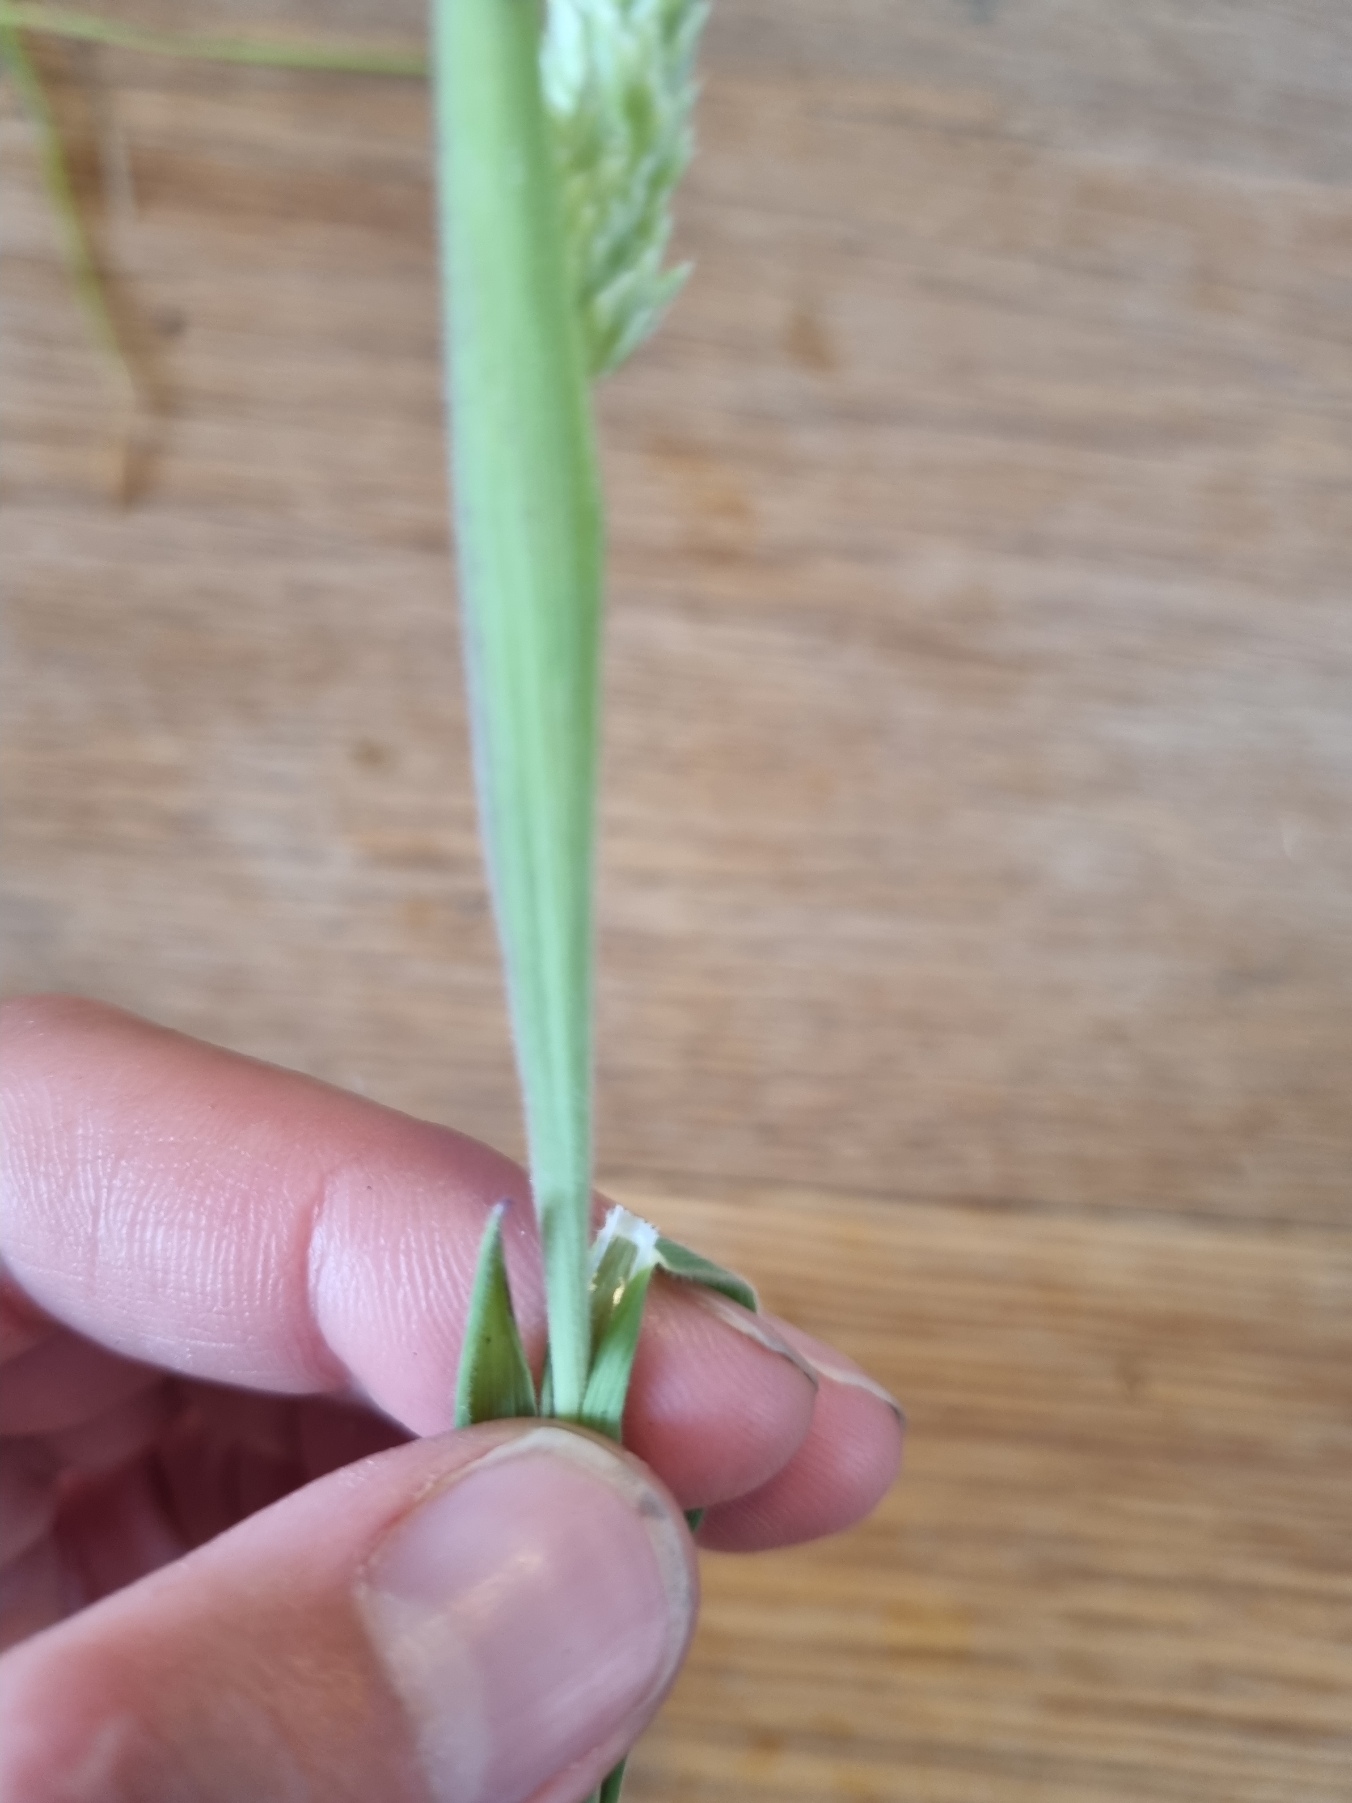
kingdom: Plantae
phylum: Tracheophyta
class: Liliopsida
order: Poales
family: Poaceae
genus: Holcus
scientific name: Holcus lanatus
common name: Fløjlsgræs
